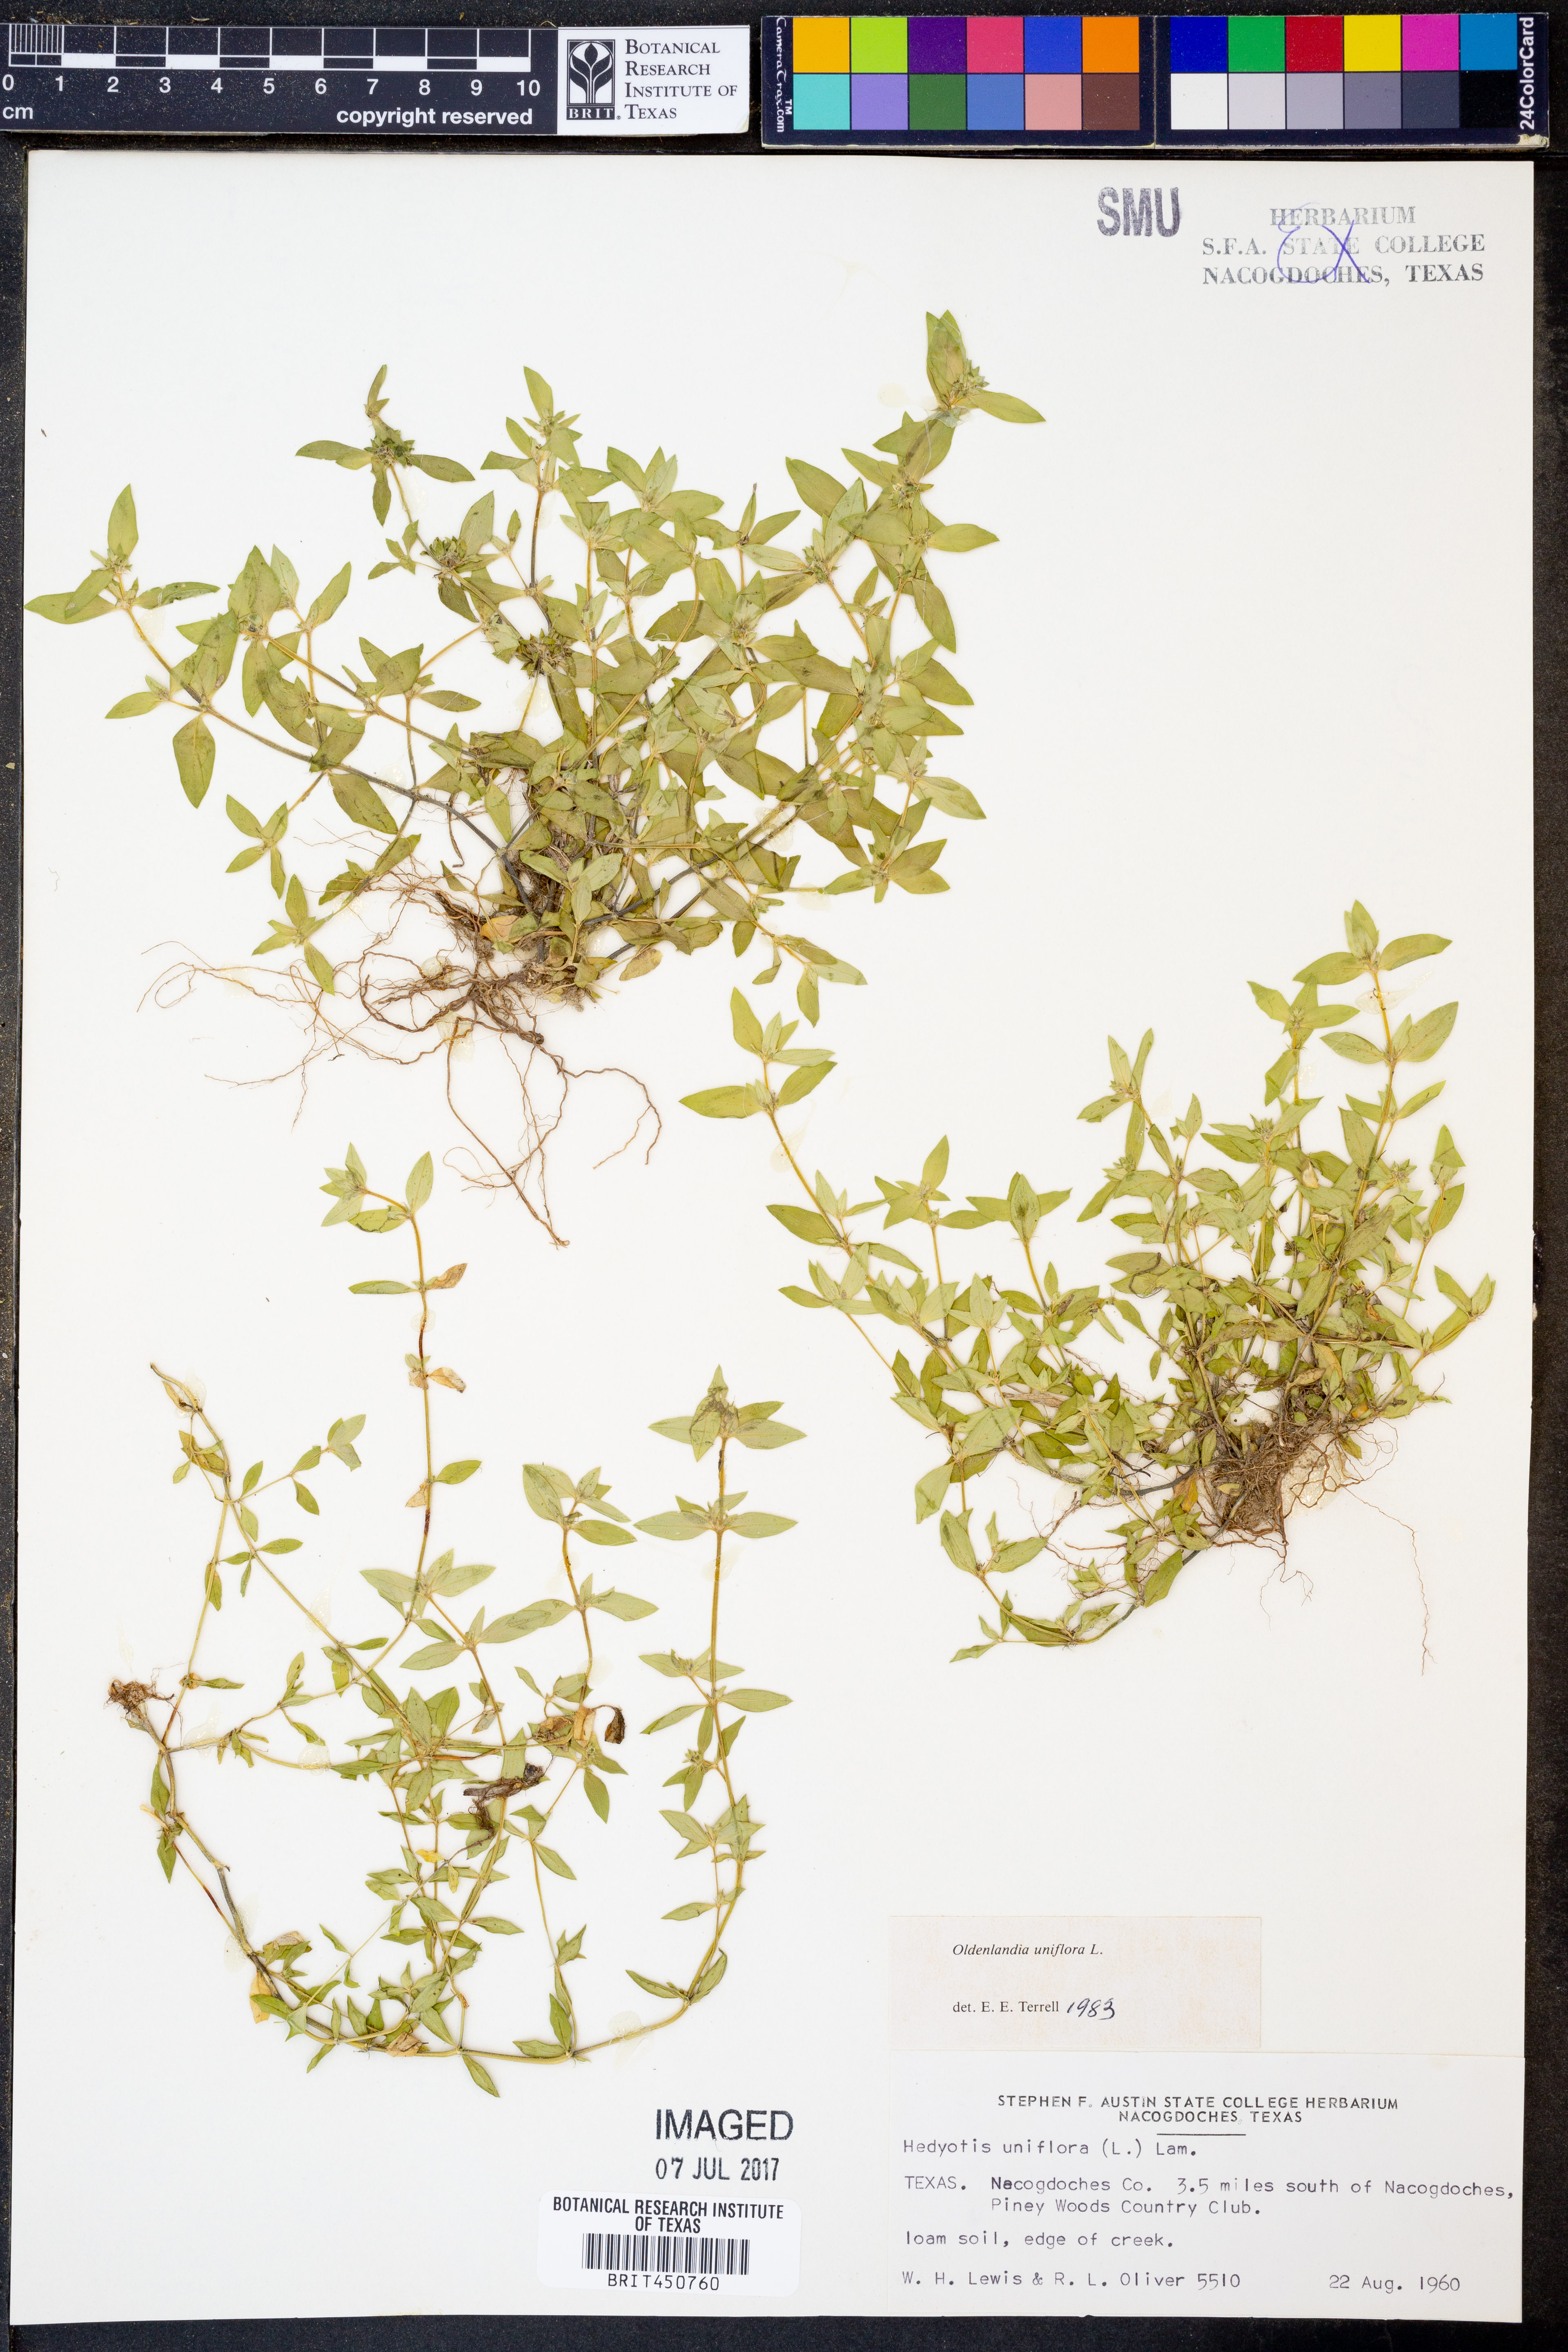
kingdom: Plantae
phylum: Tracheophyta
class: Magnoliopsida
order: Gentianales
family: Rubiaceae
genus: Edrastima
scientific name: Edrastima uniflora
